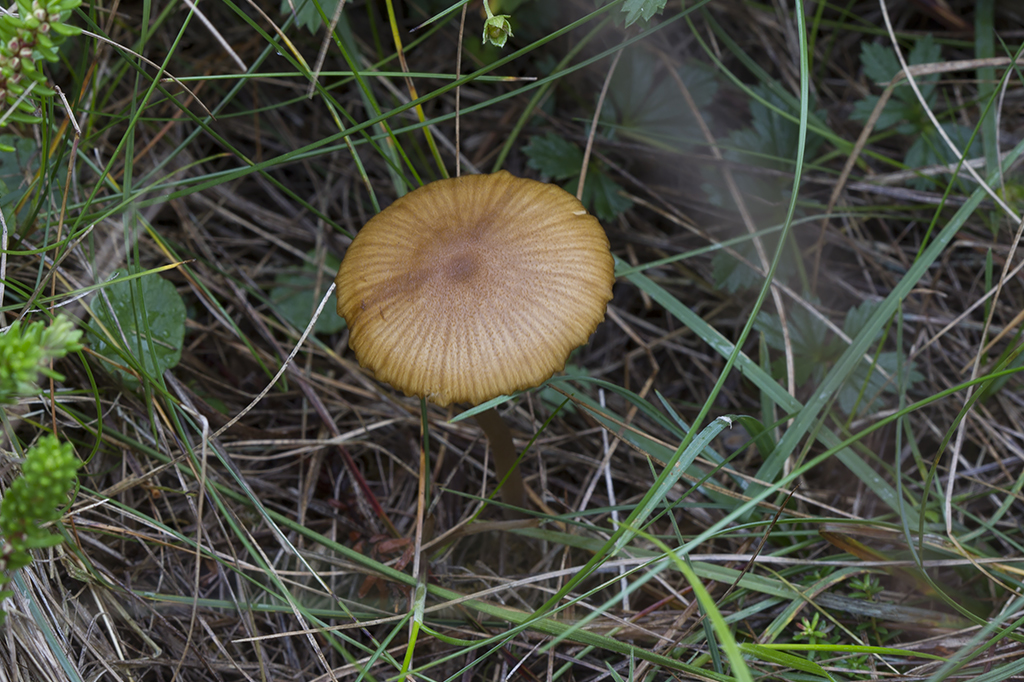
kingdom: Fungi
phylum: Basidiomycota
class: Agaricomycetes
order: Agaricales
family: Entolomataceae
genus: Entoloma
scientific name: Entoloma formosum
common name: brungul rødblad
